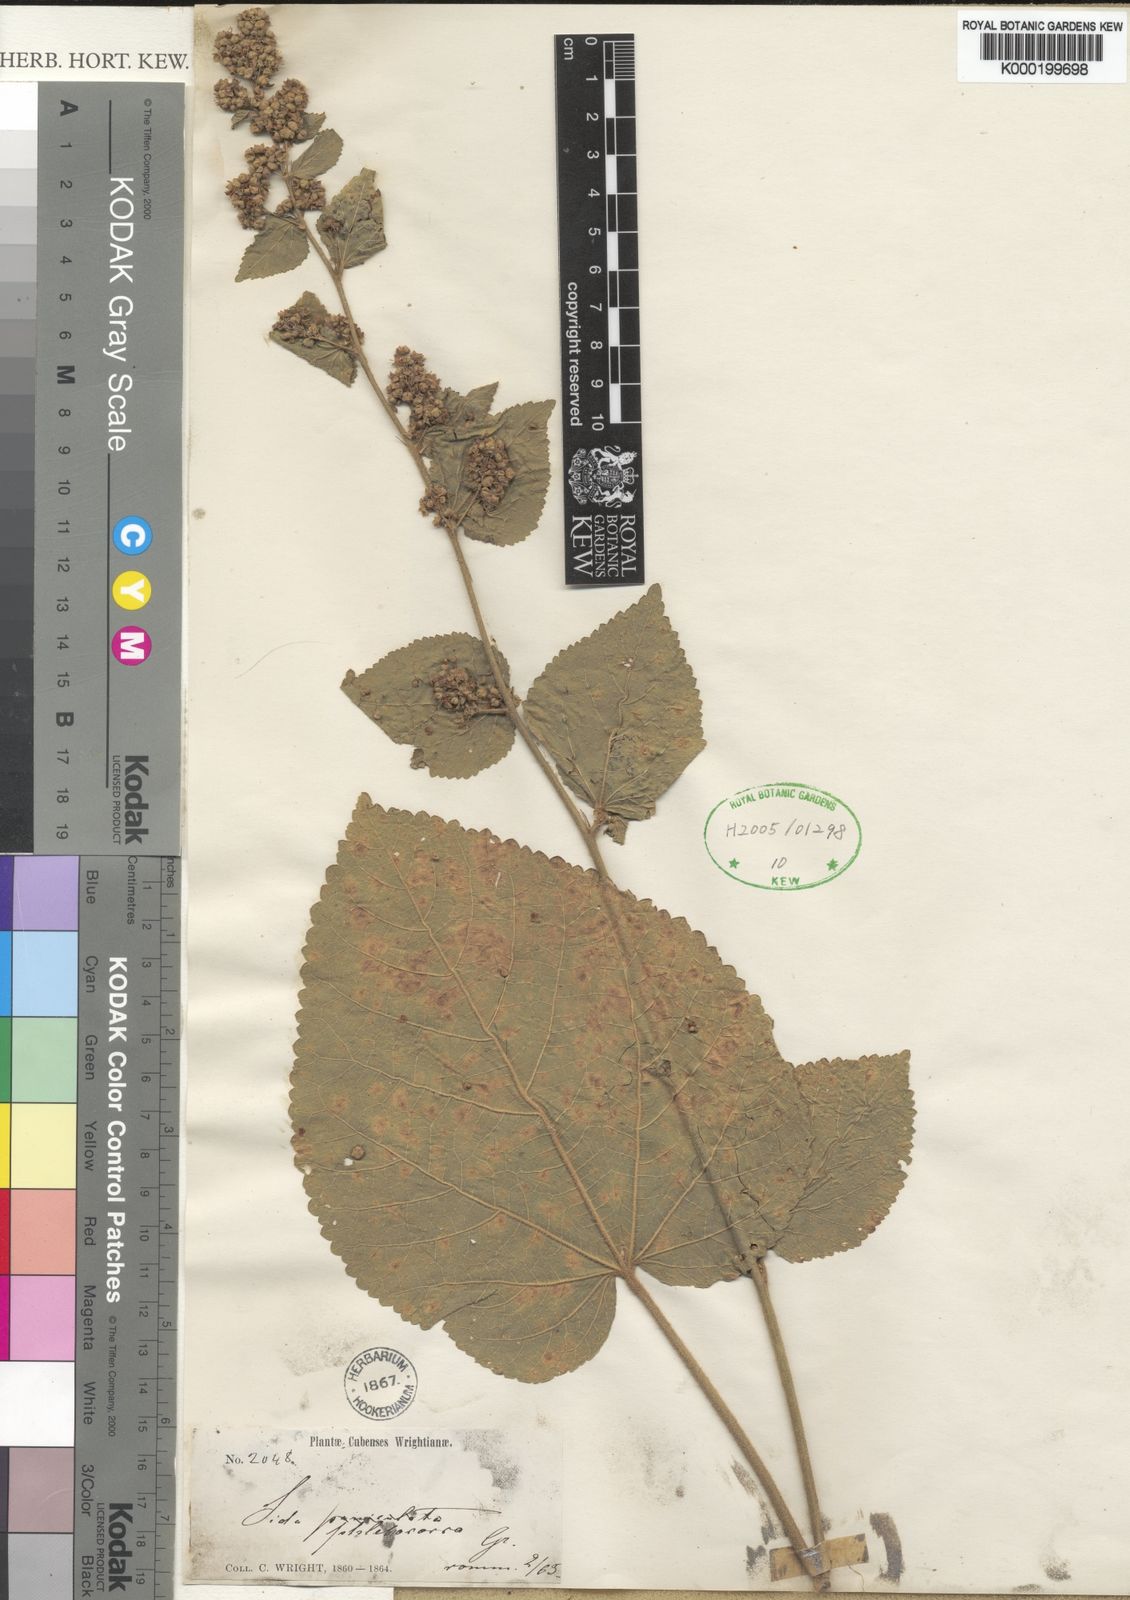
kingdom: Plantae
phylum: Tracheophyta
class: Magnoliopsida
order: Malvales
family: Malvaceae
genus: Sidastrum
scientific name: Sidastrum micranthum
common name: Dainty sandmallow
